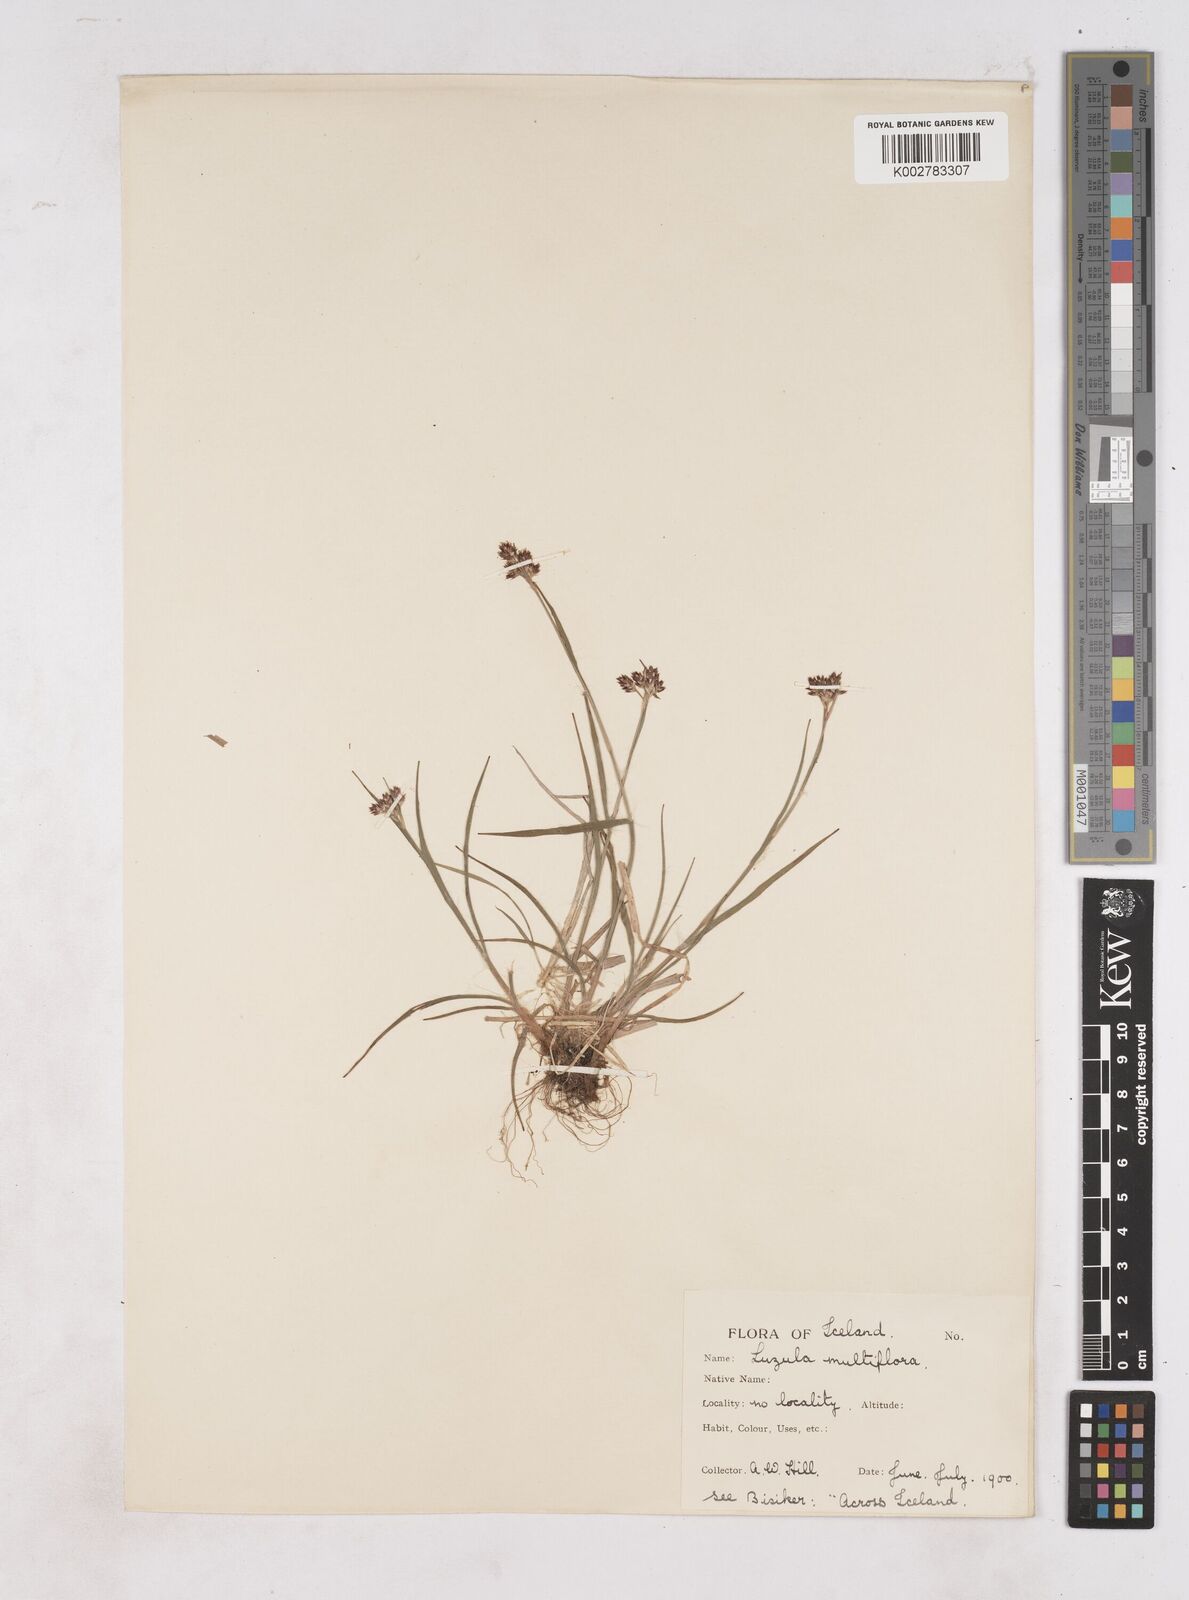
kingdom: Plantae
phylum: Tracheophyta
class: Liliopsida
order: Poales
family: Juncaceae
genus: Luzula
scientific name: Luzula multiflora
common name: Heath wood-rush
